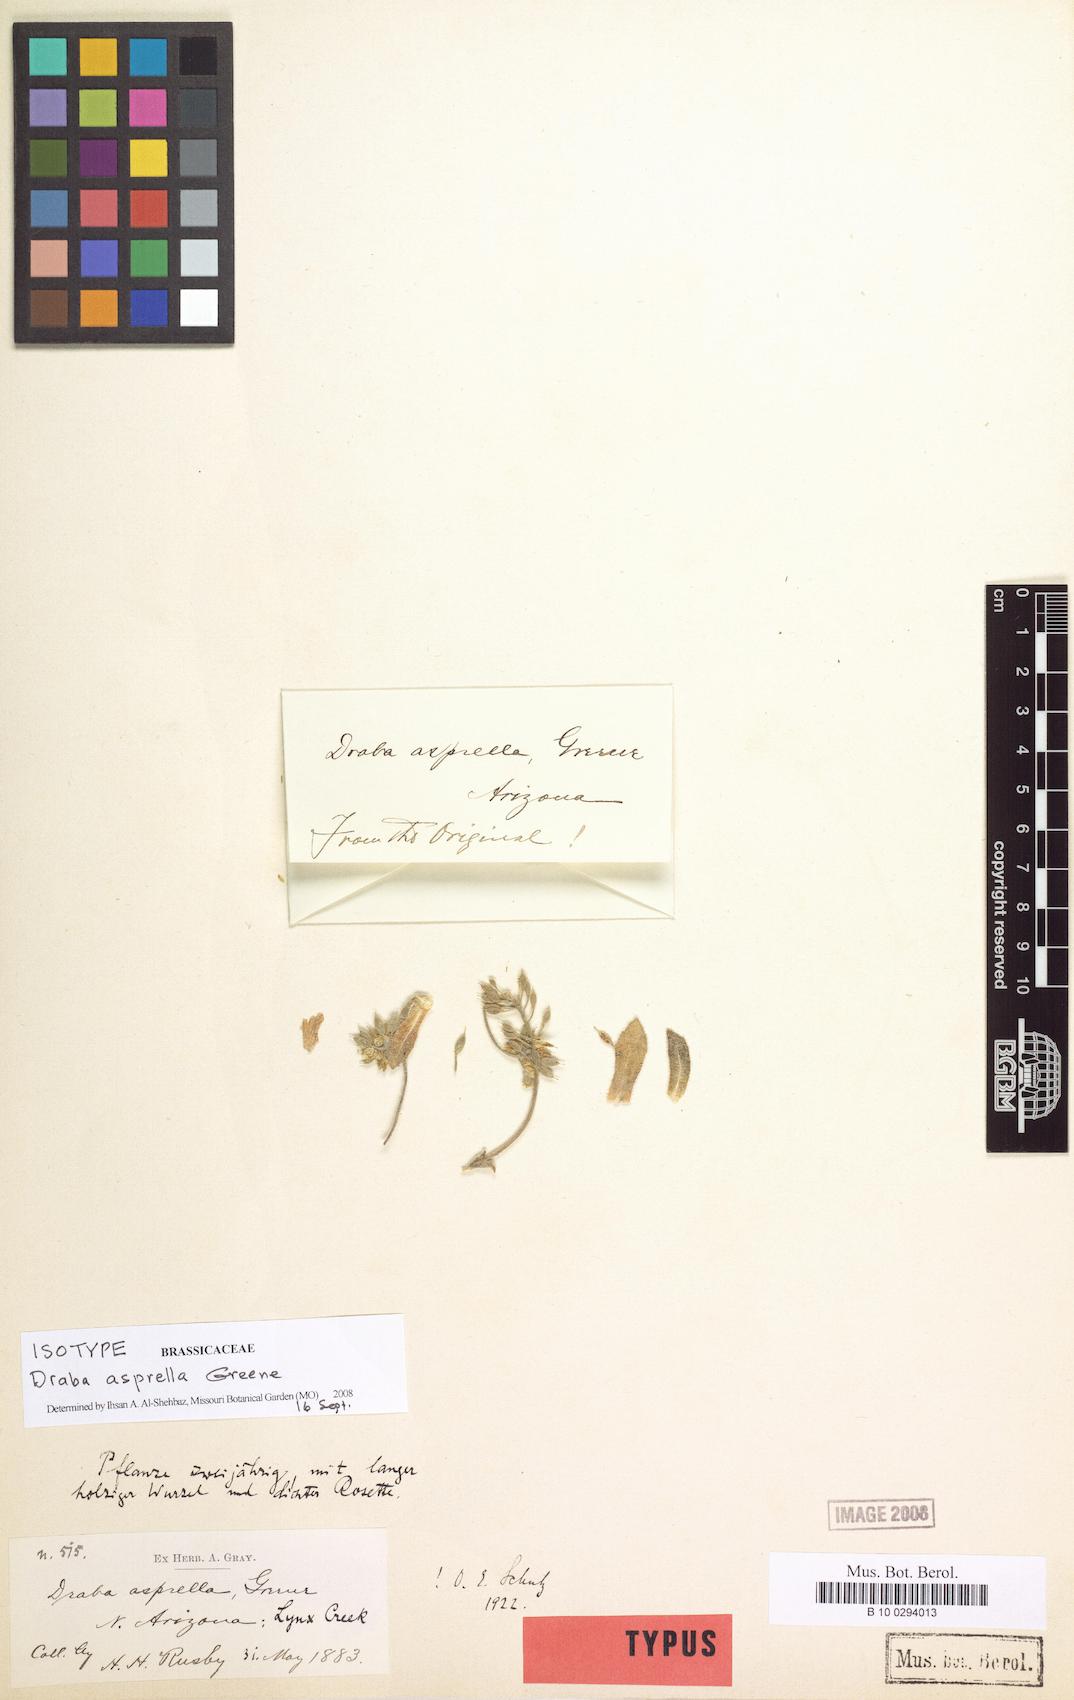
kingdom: Plantae
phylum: Tracheophyta
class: Magnoliopsida
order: Brassicales
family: Brassicaceae
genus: Draba
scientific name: Draba asprella
